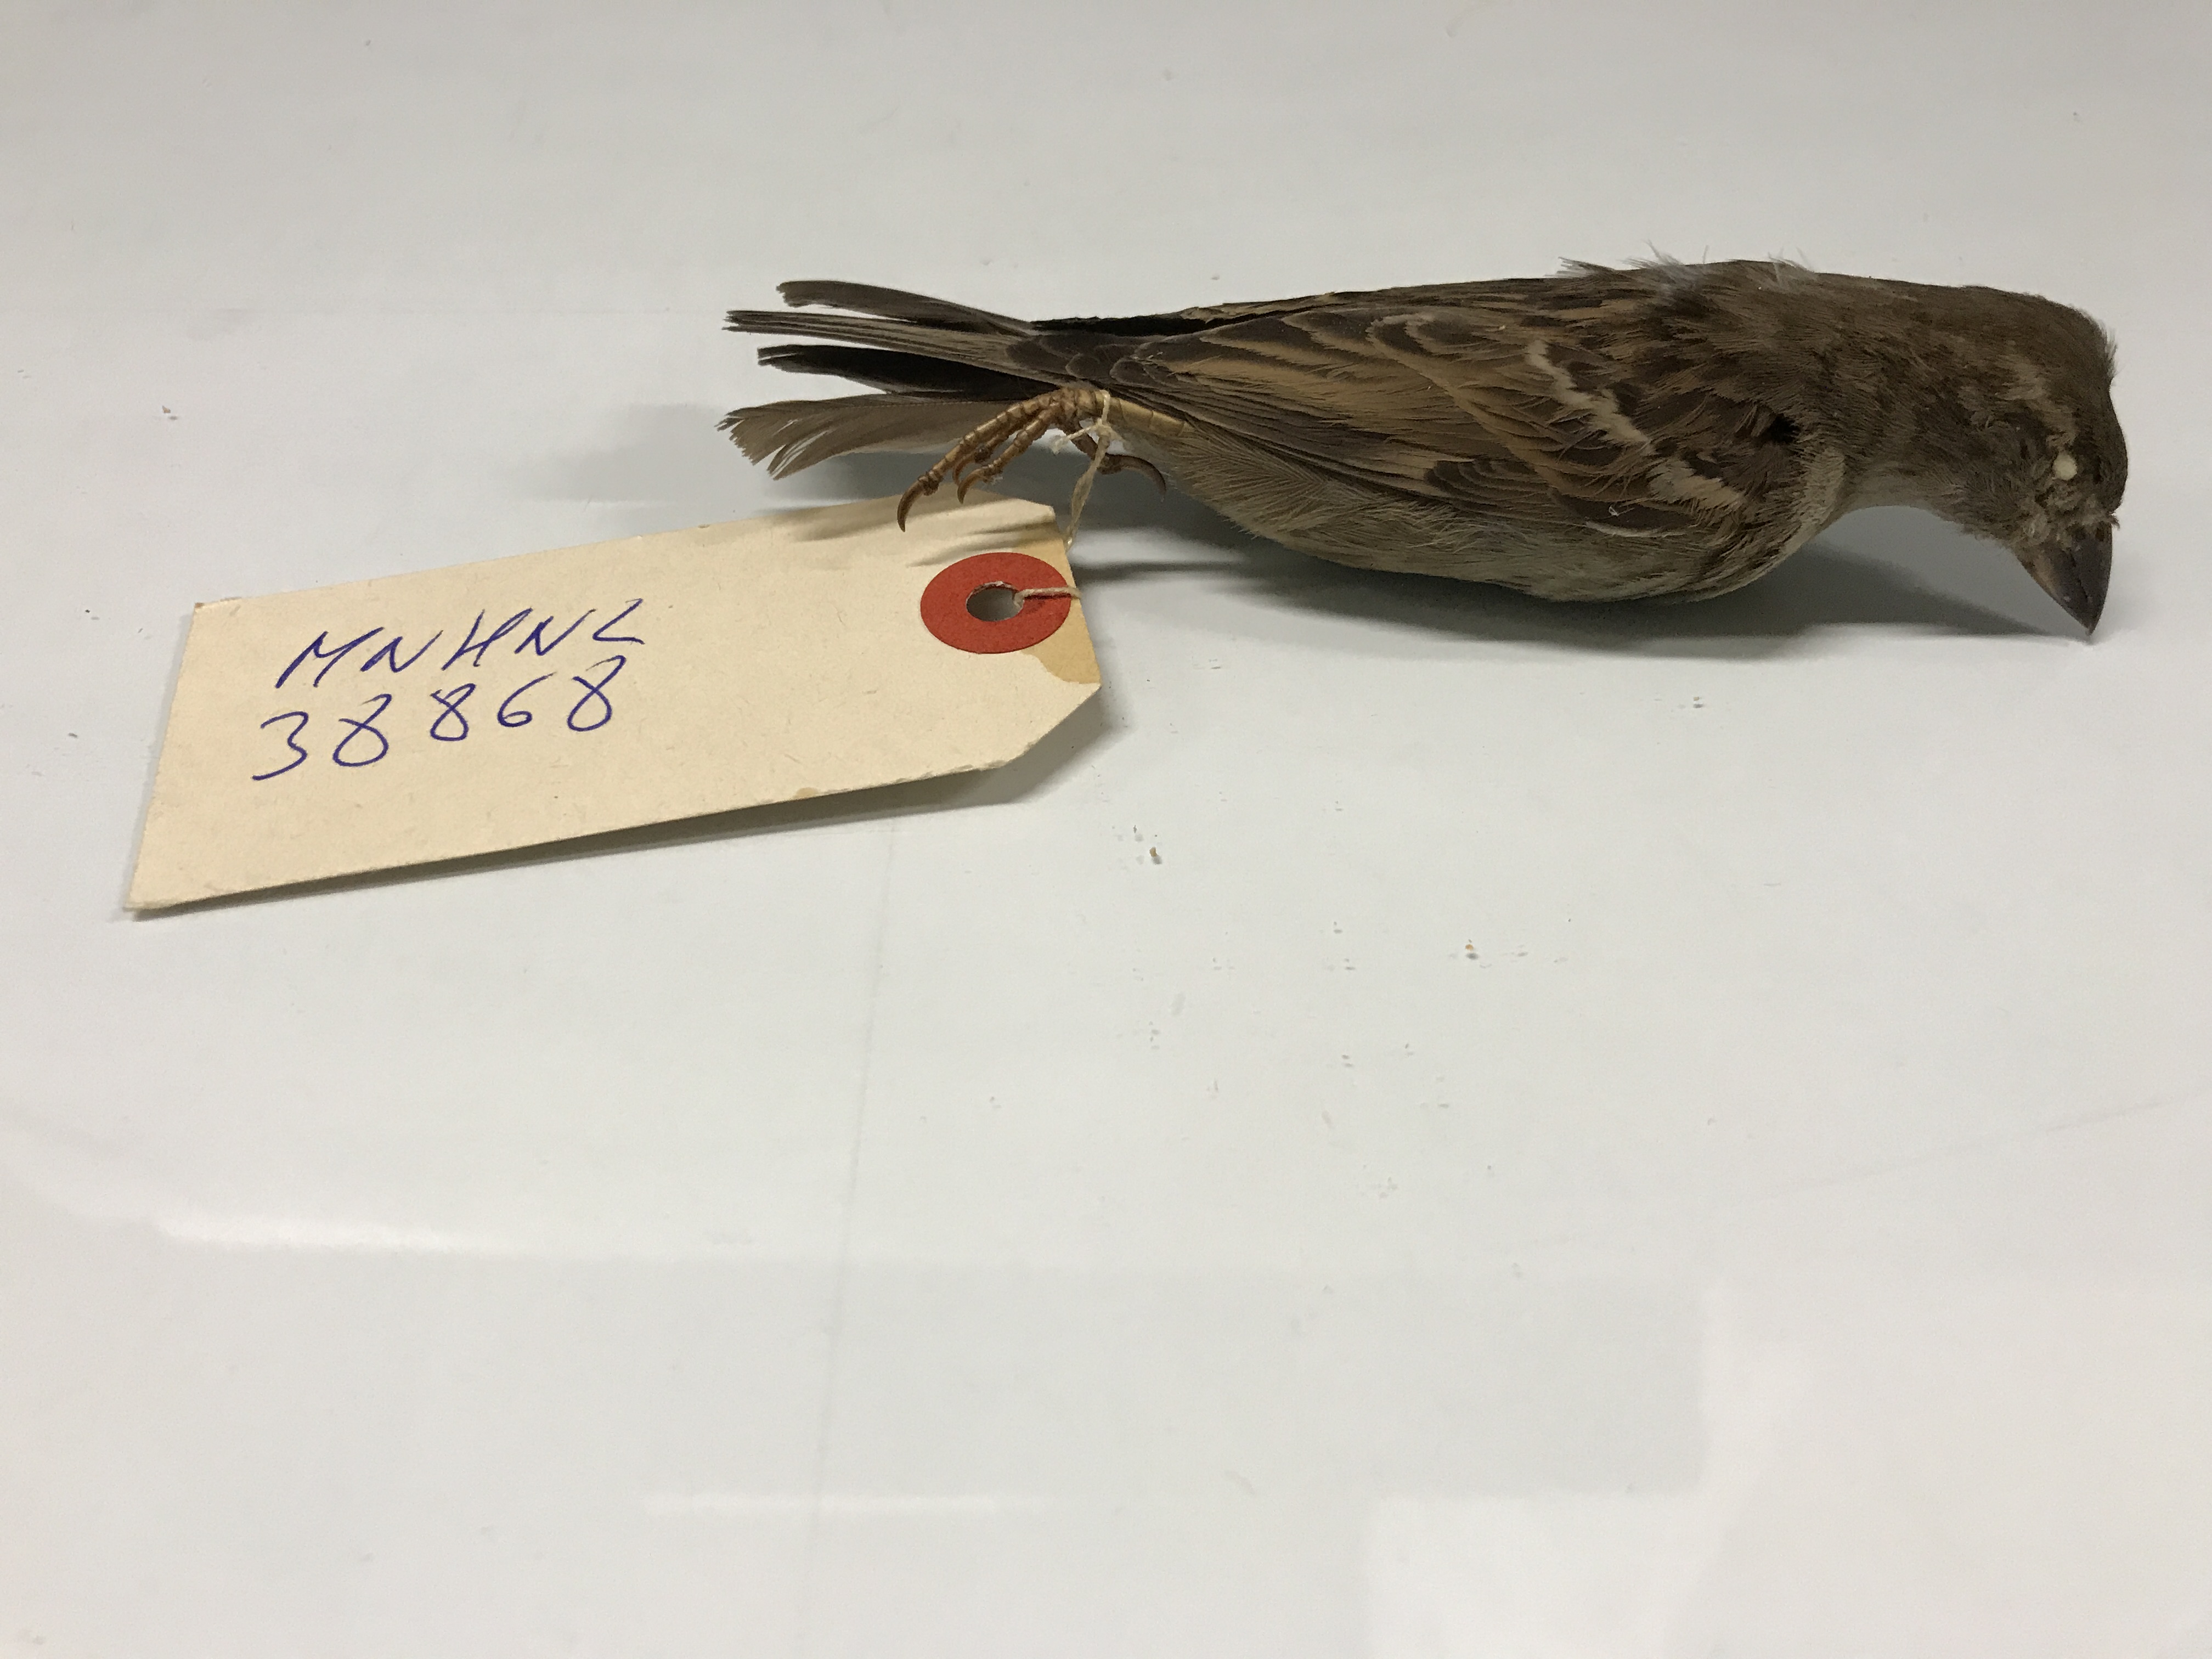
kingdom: Animalia
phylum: Chordata
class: Aves
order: Passeriformes
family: Passeridae
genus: Passer
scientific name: Passer domesticus
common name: House sparrow
